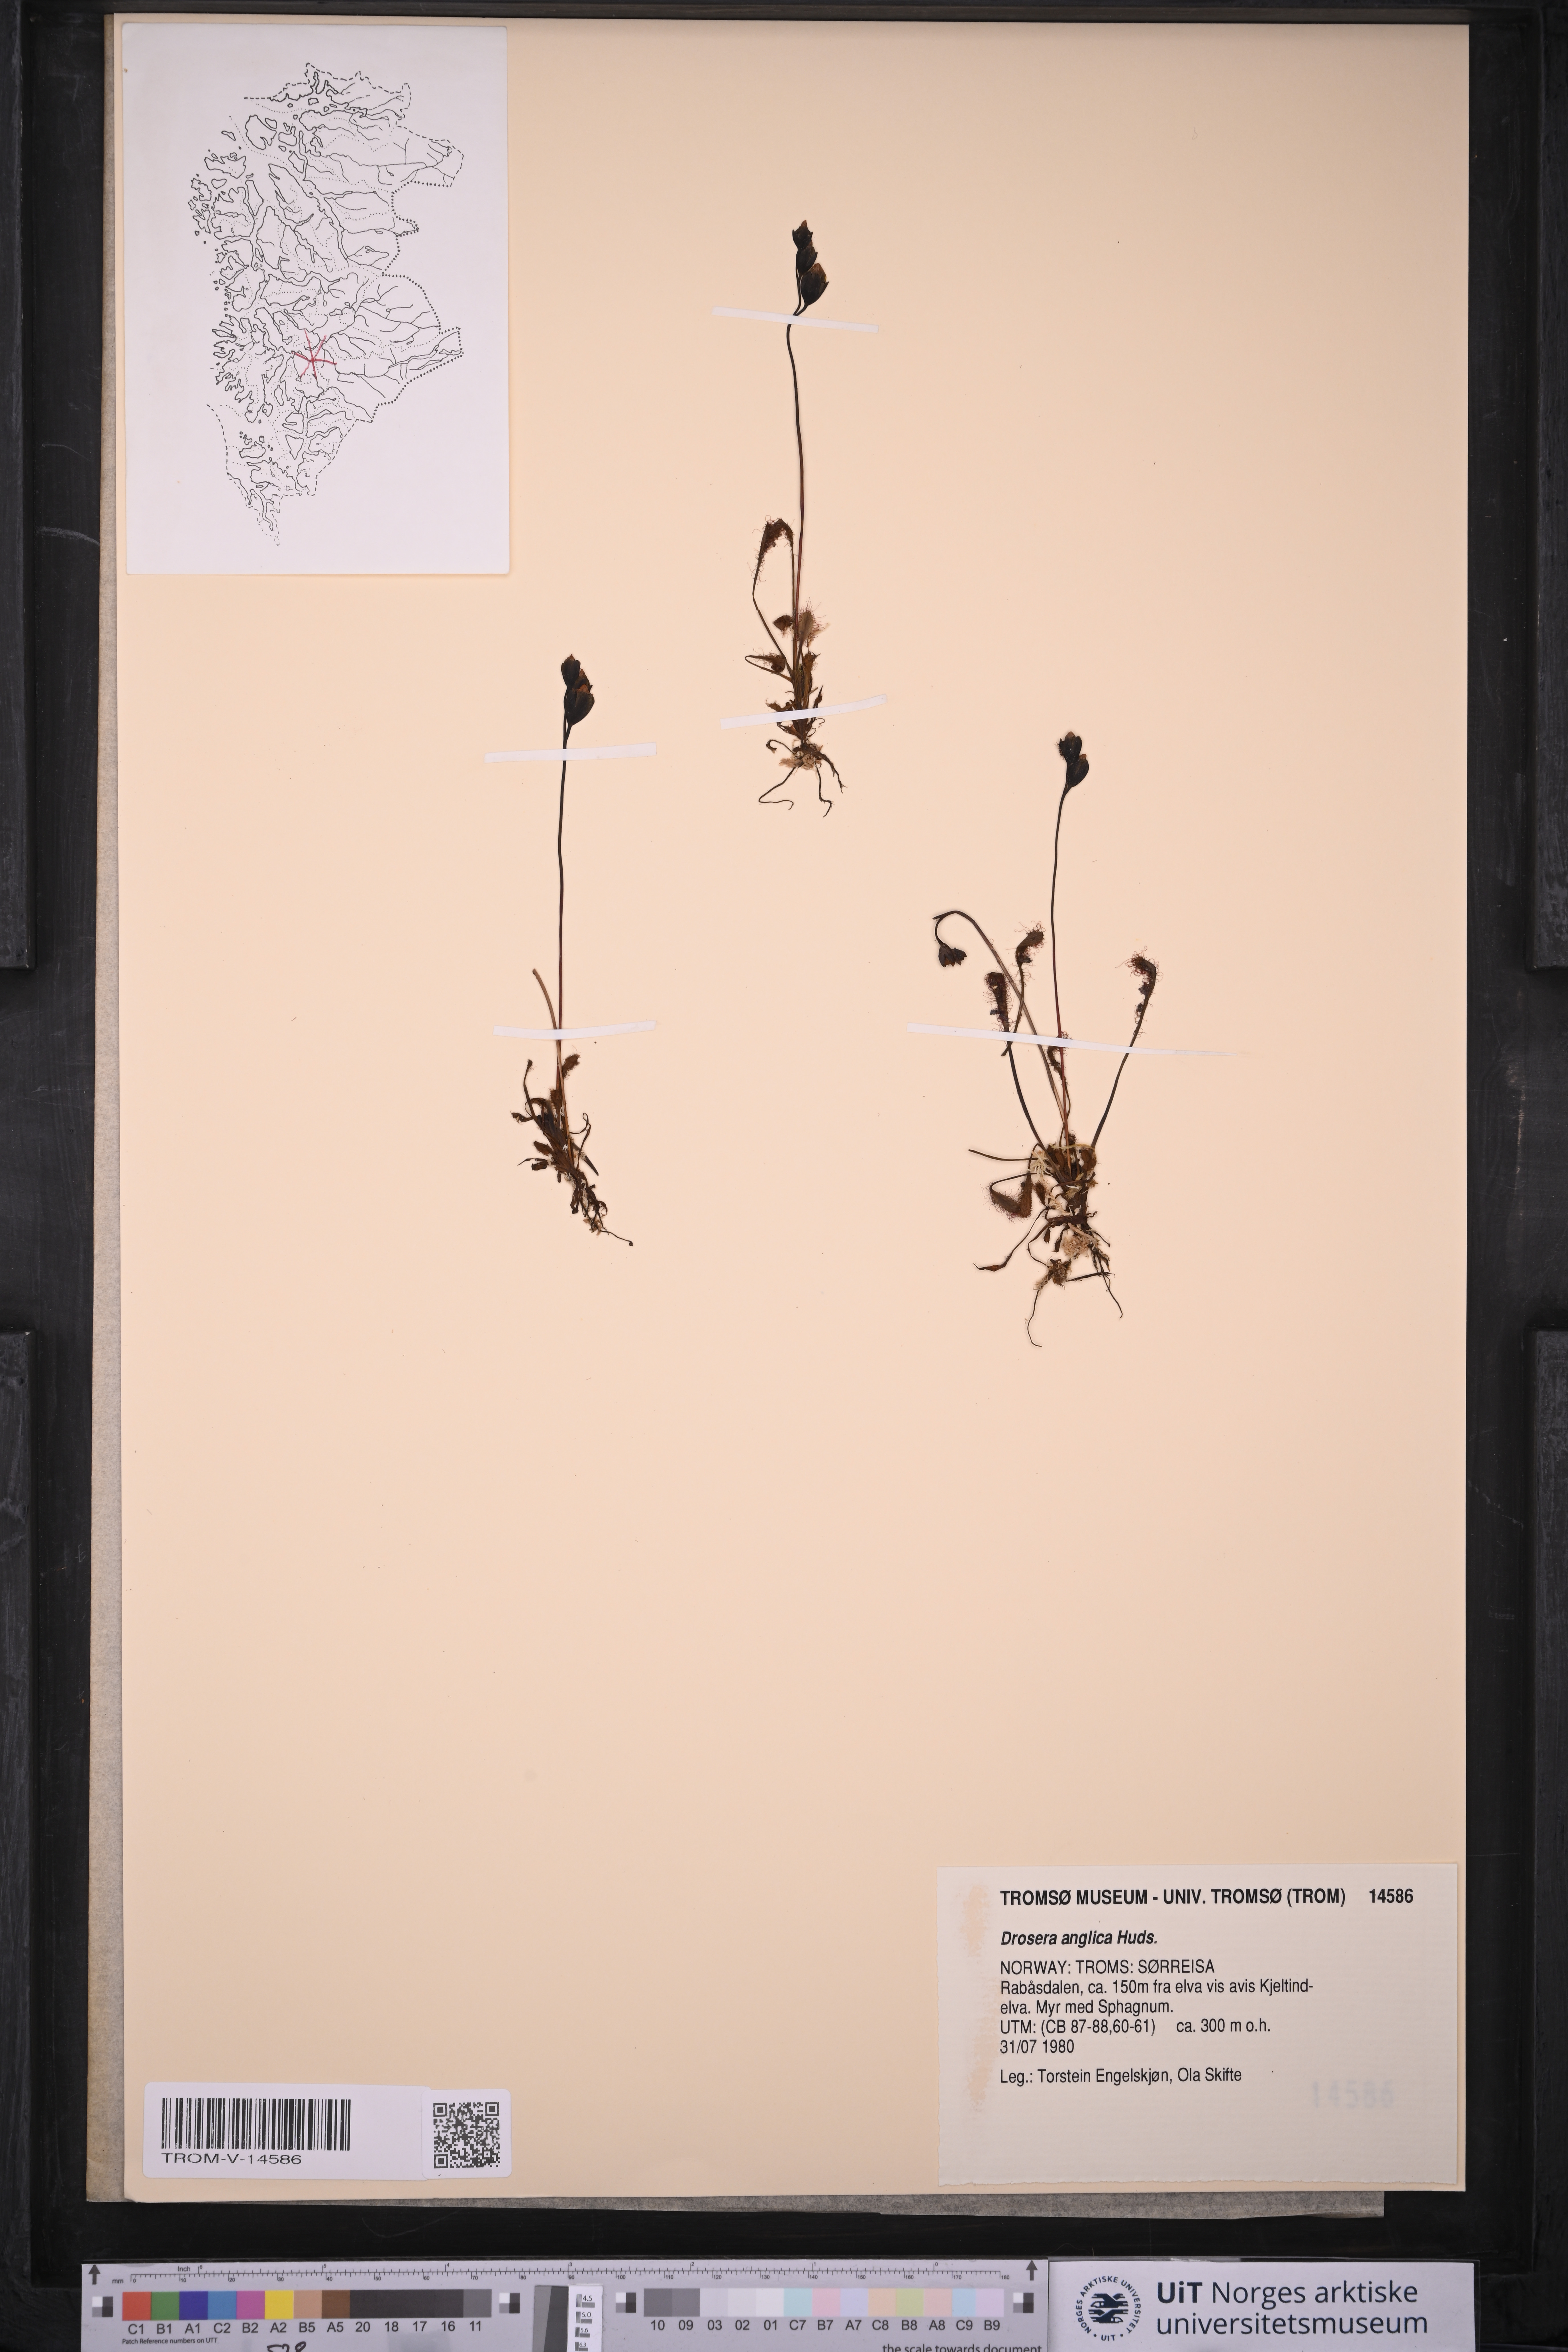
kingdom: Plantae
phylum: Tracheophyta
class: Magnoliopsida
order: Caryophyllales
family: Droseraceae
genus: Drosera
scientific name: Drosera anglica
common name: Great sundew
